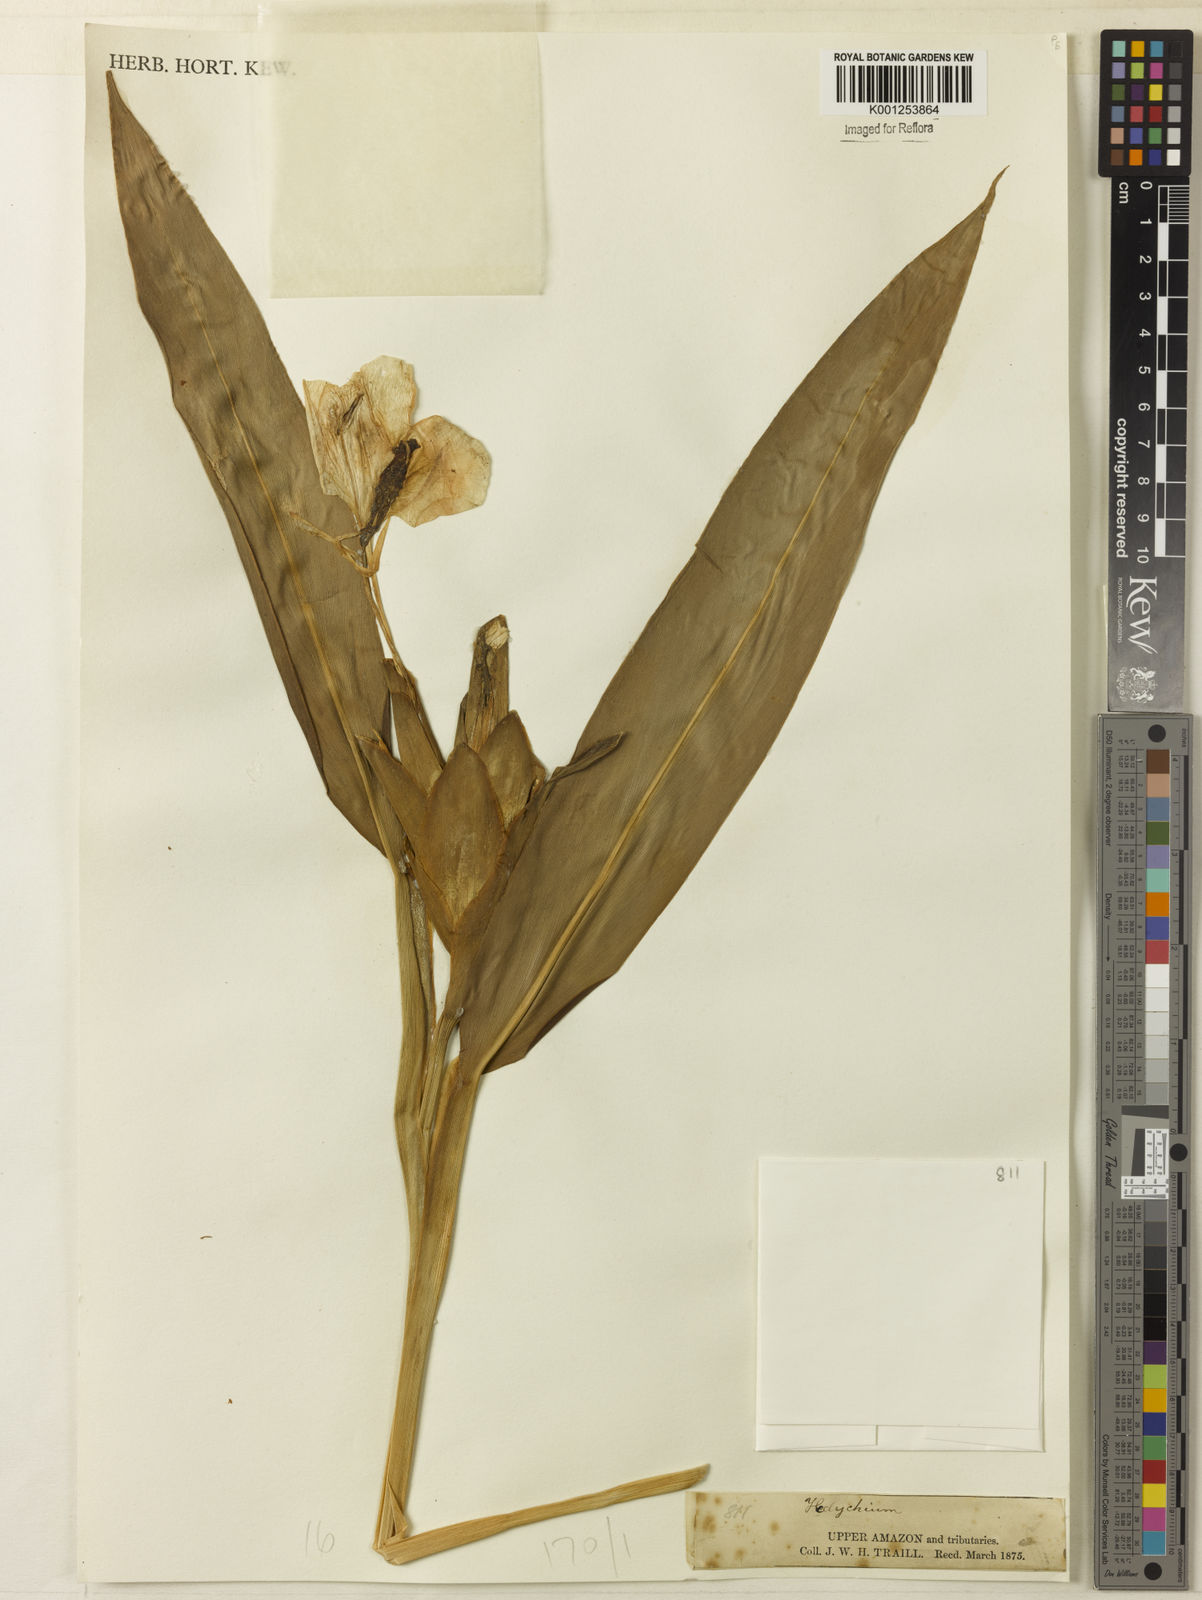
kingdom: Plantae
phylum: Tracheophyta
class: Liliopsida
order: Zingiberales
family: Zingiberaceae
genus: Hedychium
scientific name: Hedychium coronarium
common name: White garland-lily
